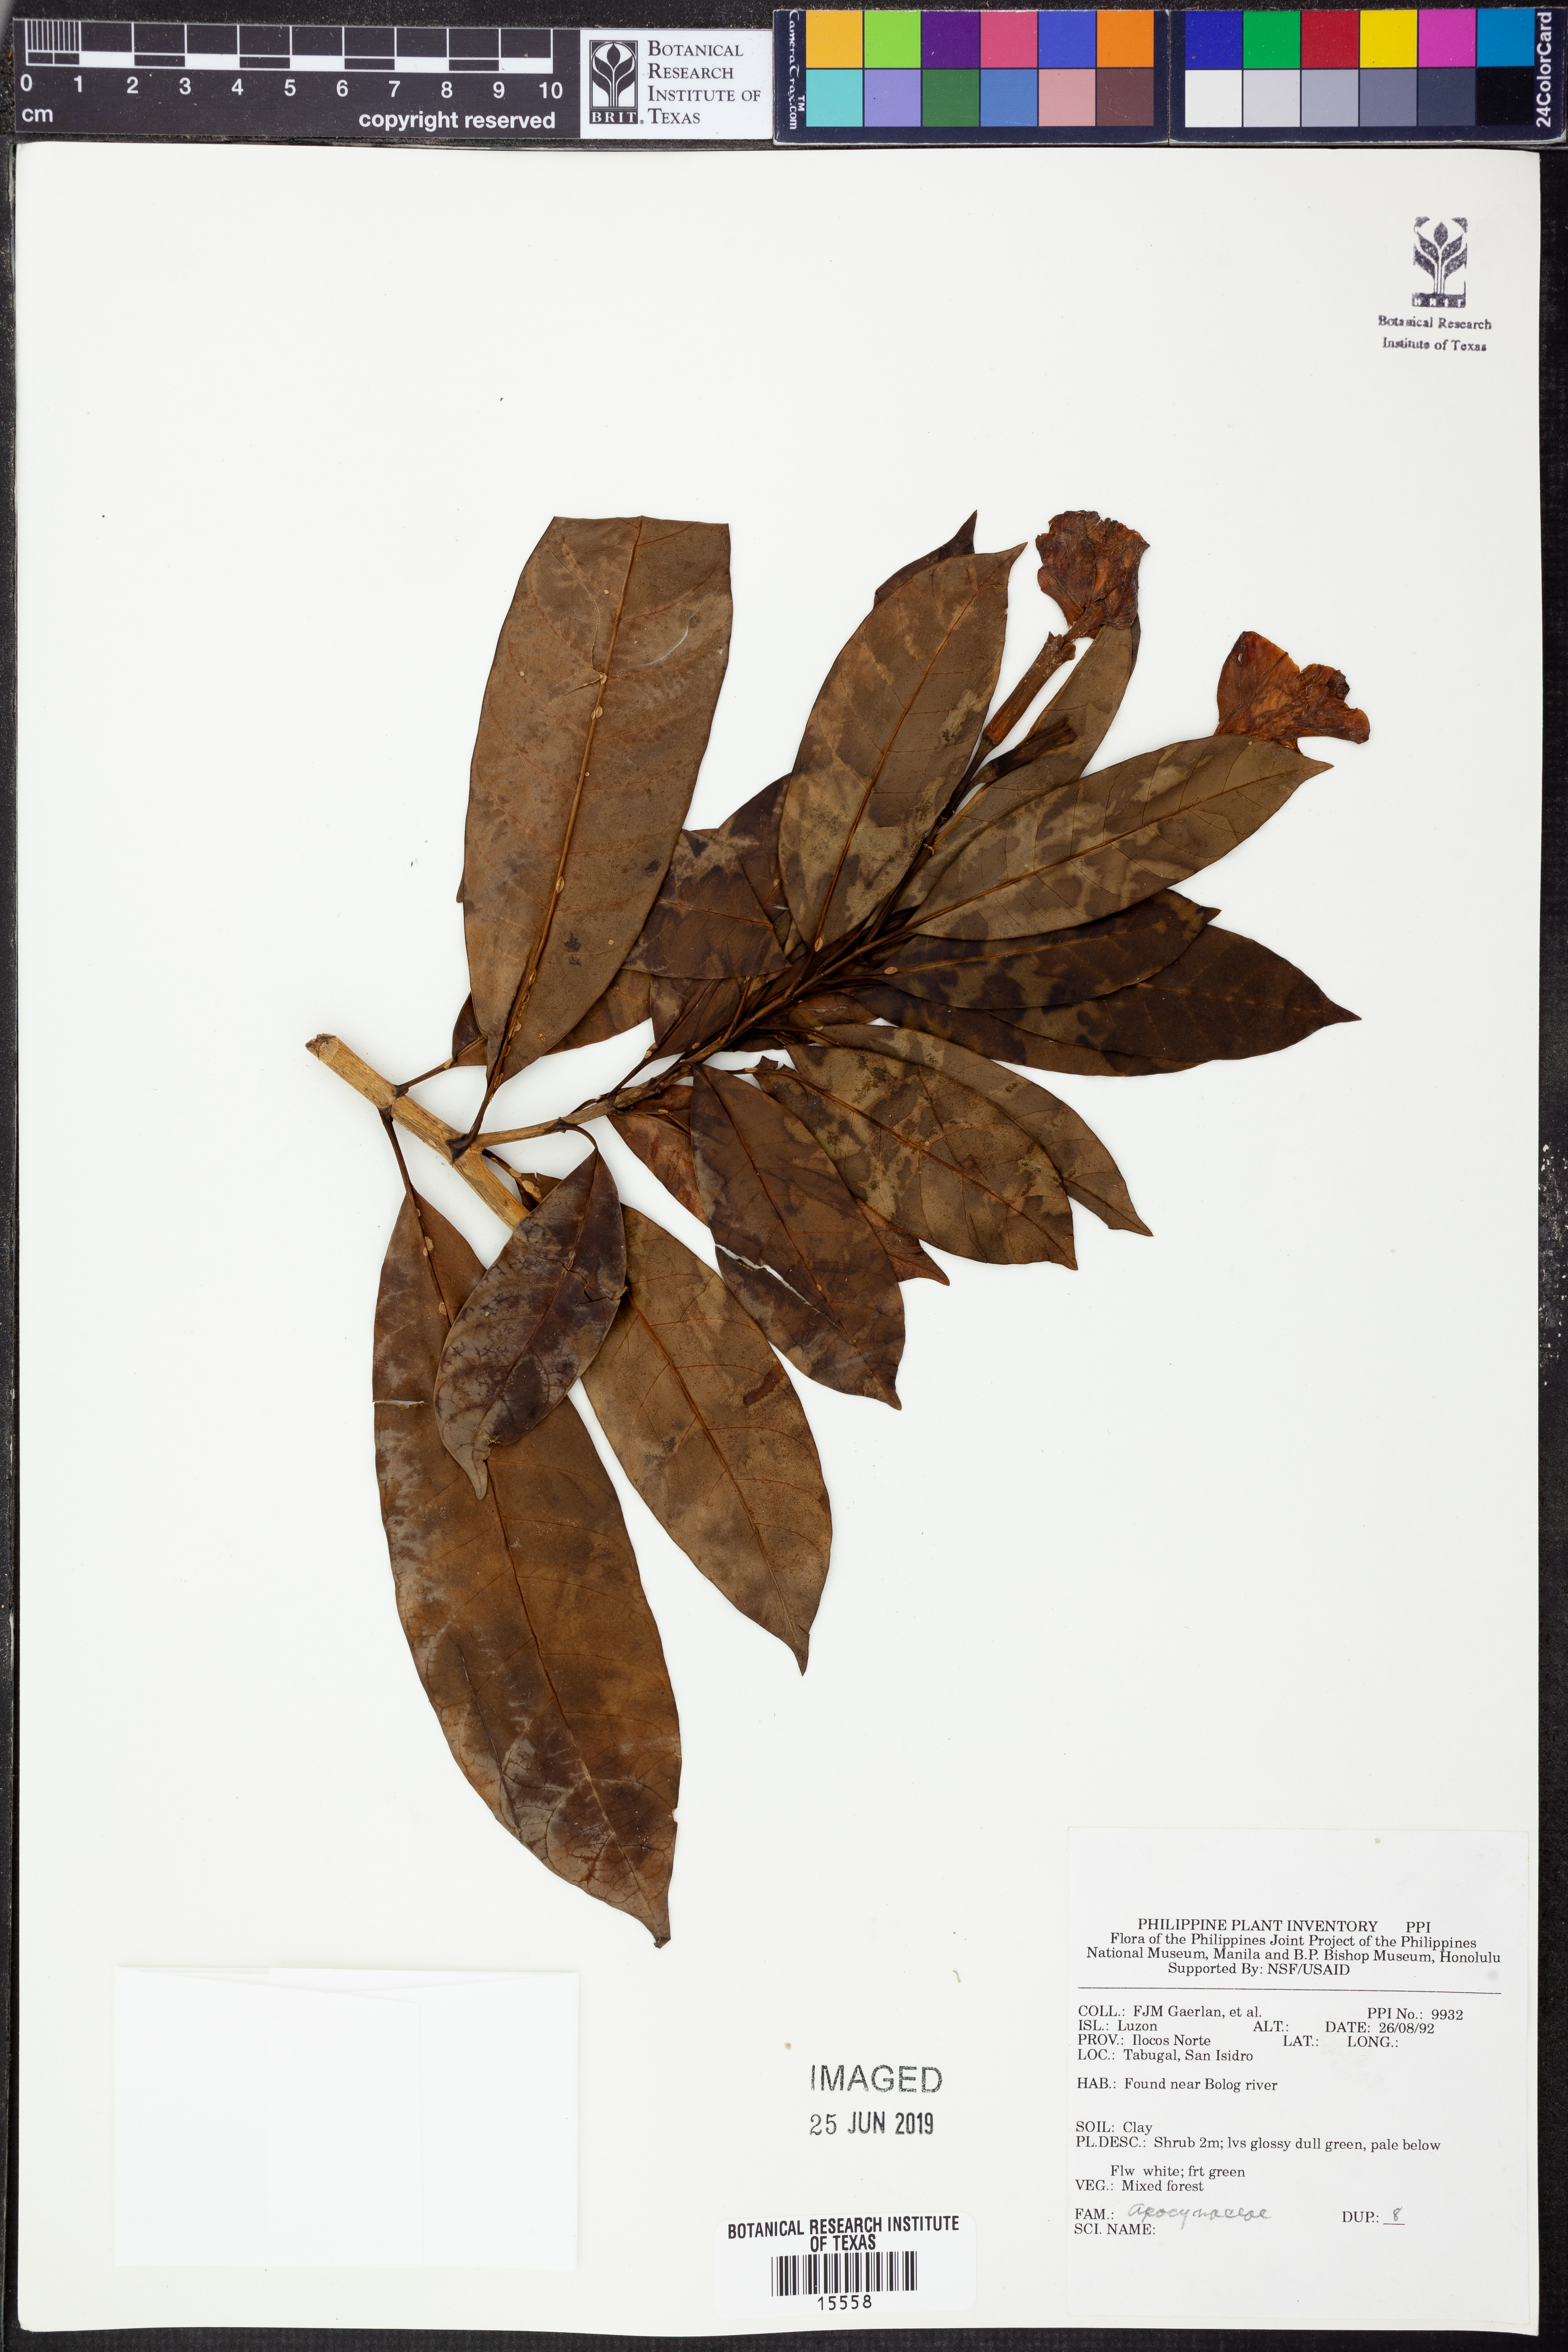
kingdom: Plantae
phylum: Tracheophyta
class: Magnoliopsida
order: Gentianales
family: Apocynaceae
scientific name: Apocynaceae
